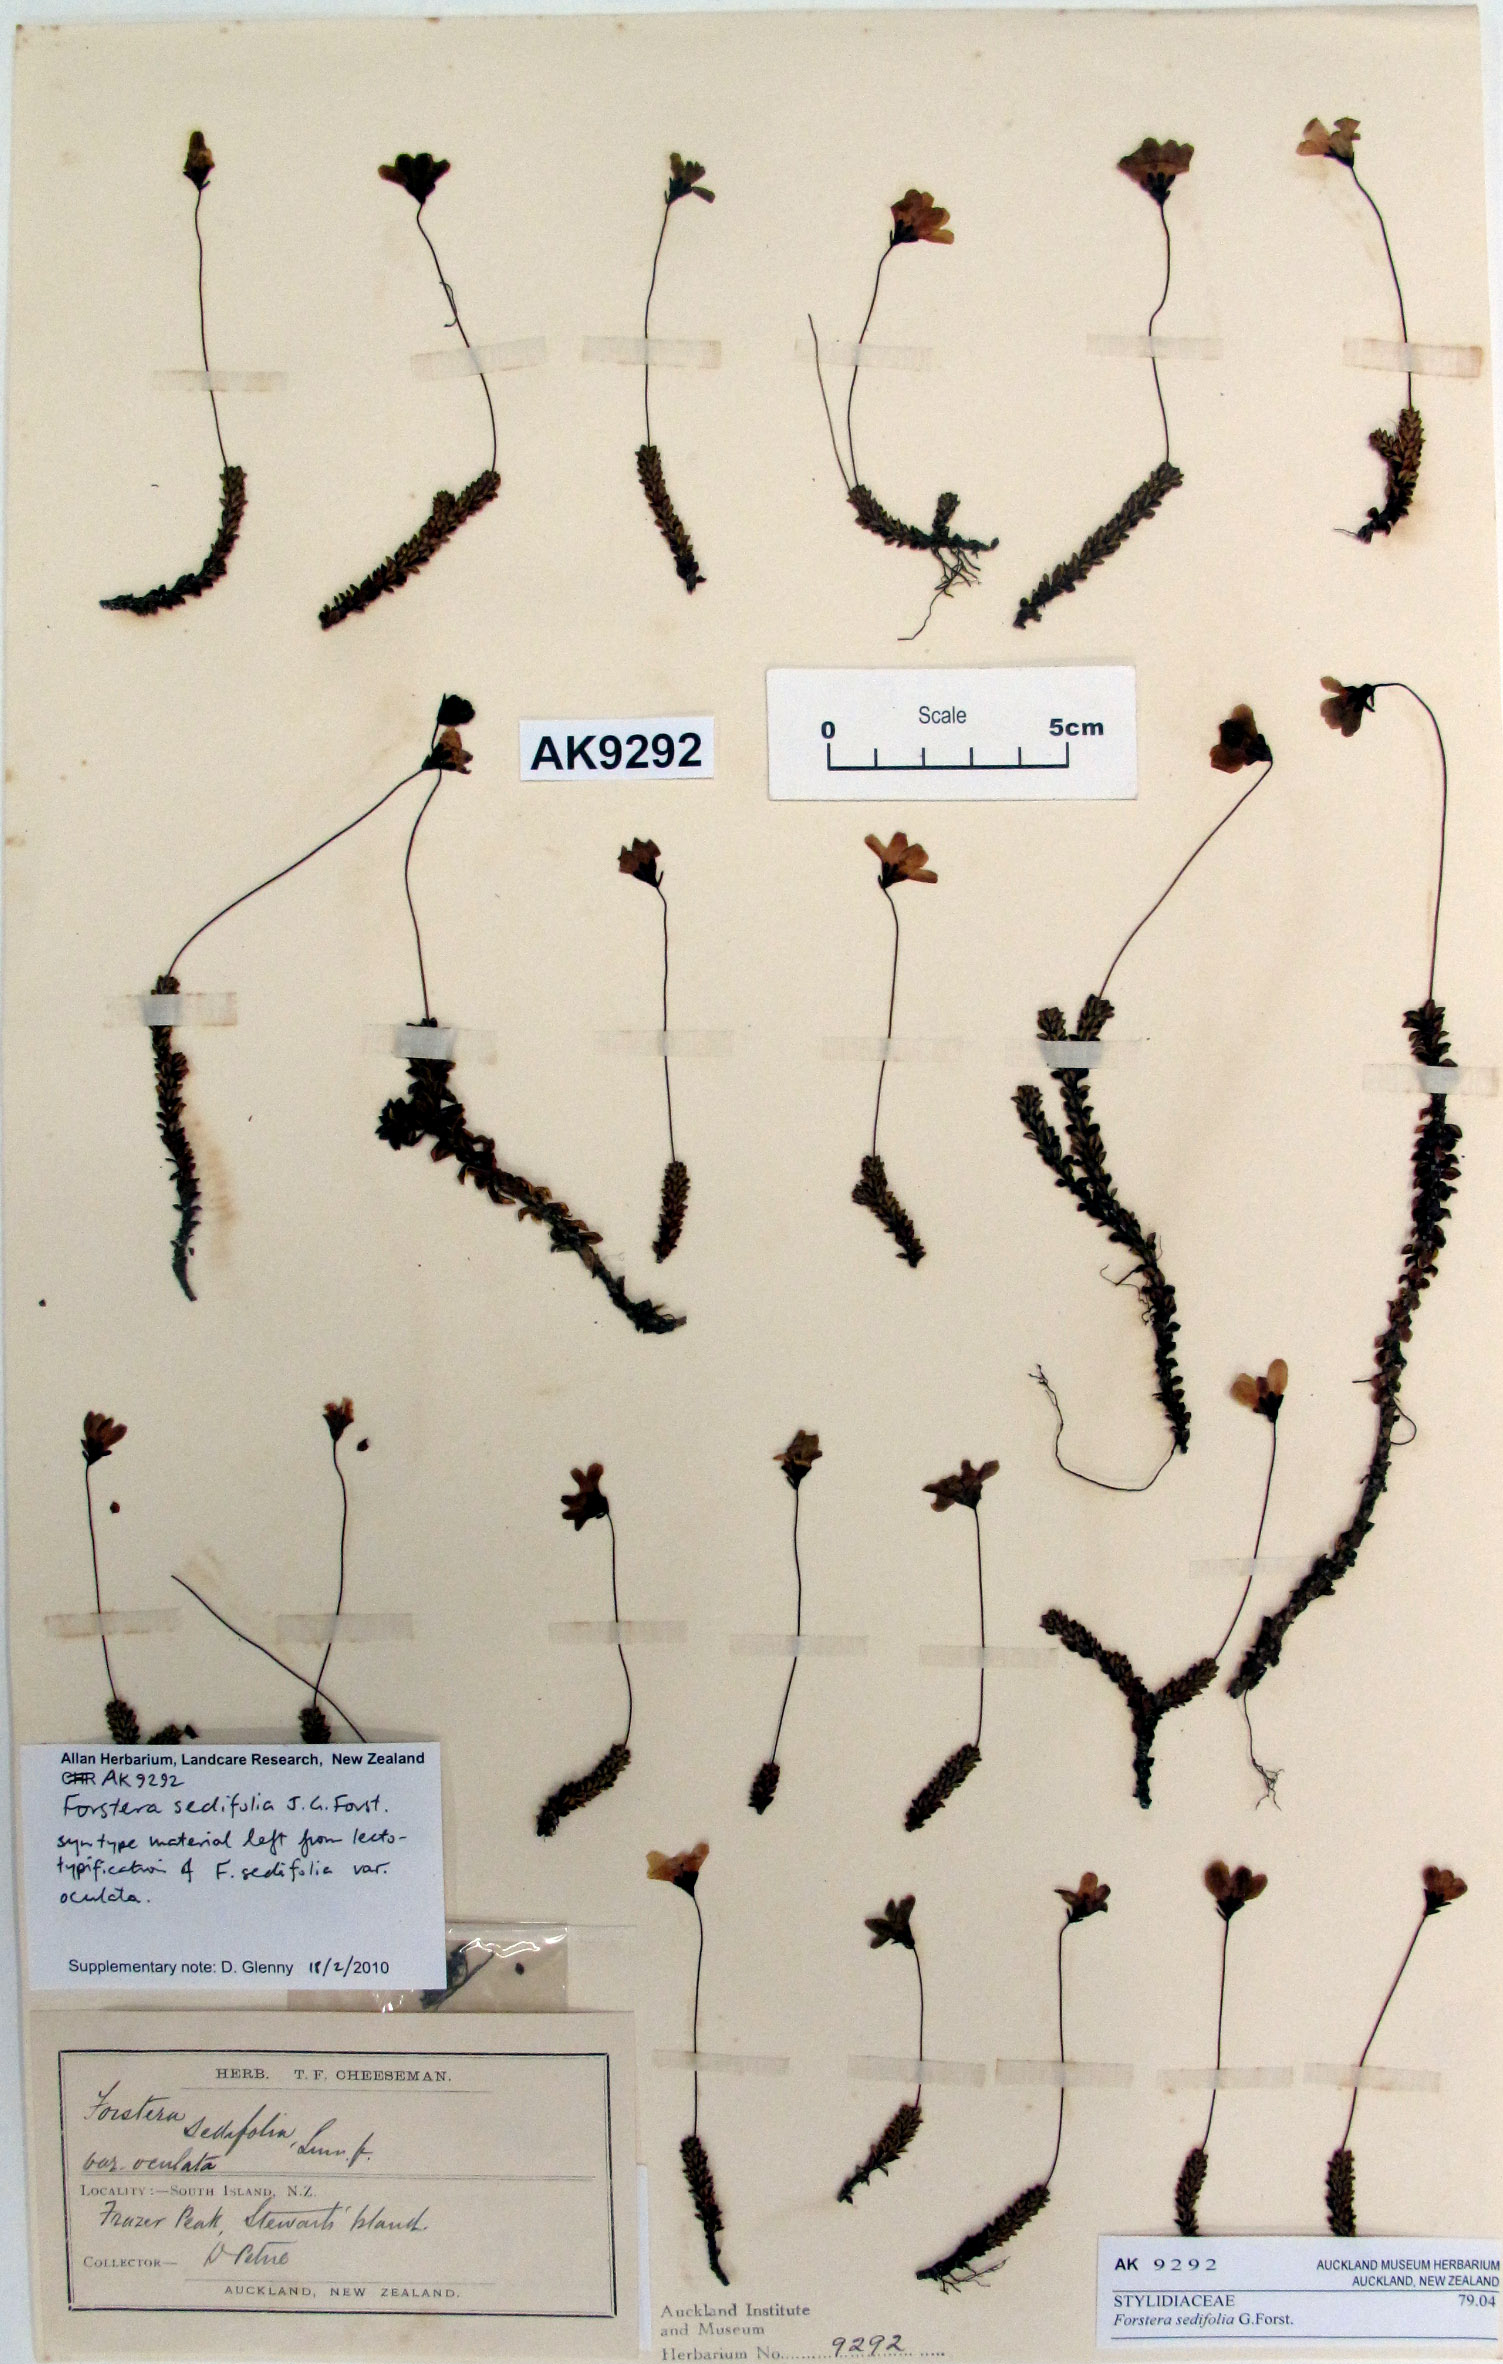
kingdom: Plantae
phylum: Tracheophyta
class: Magnoliopsida
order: Asterales
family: Stylidiaceae
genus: Forstera
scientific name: Forstera sedifolia
